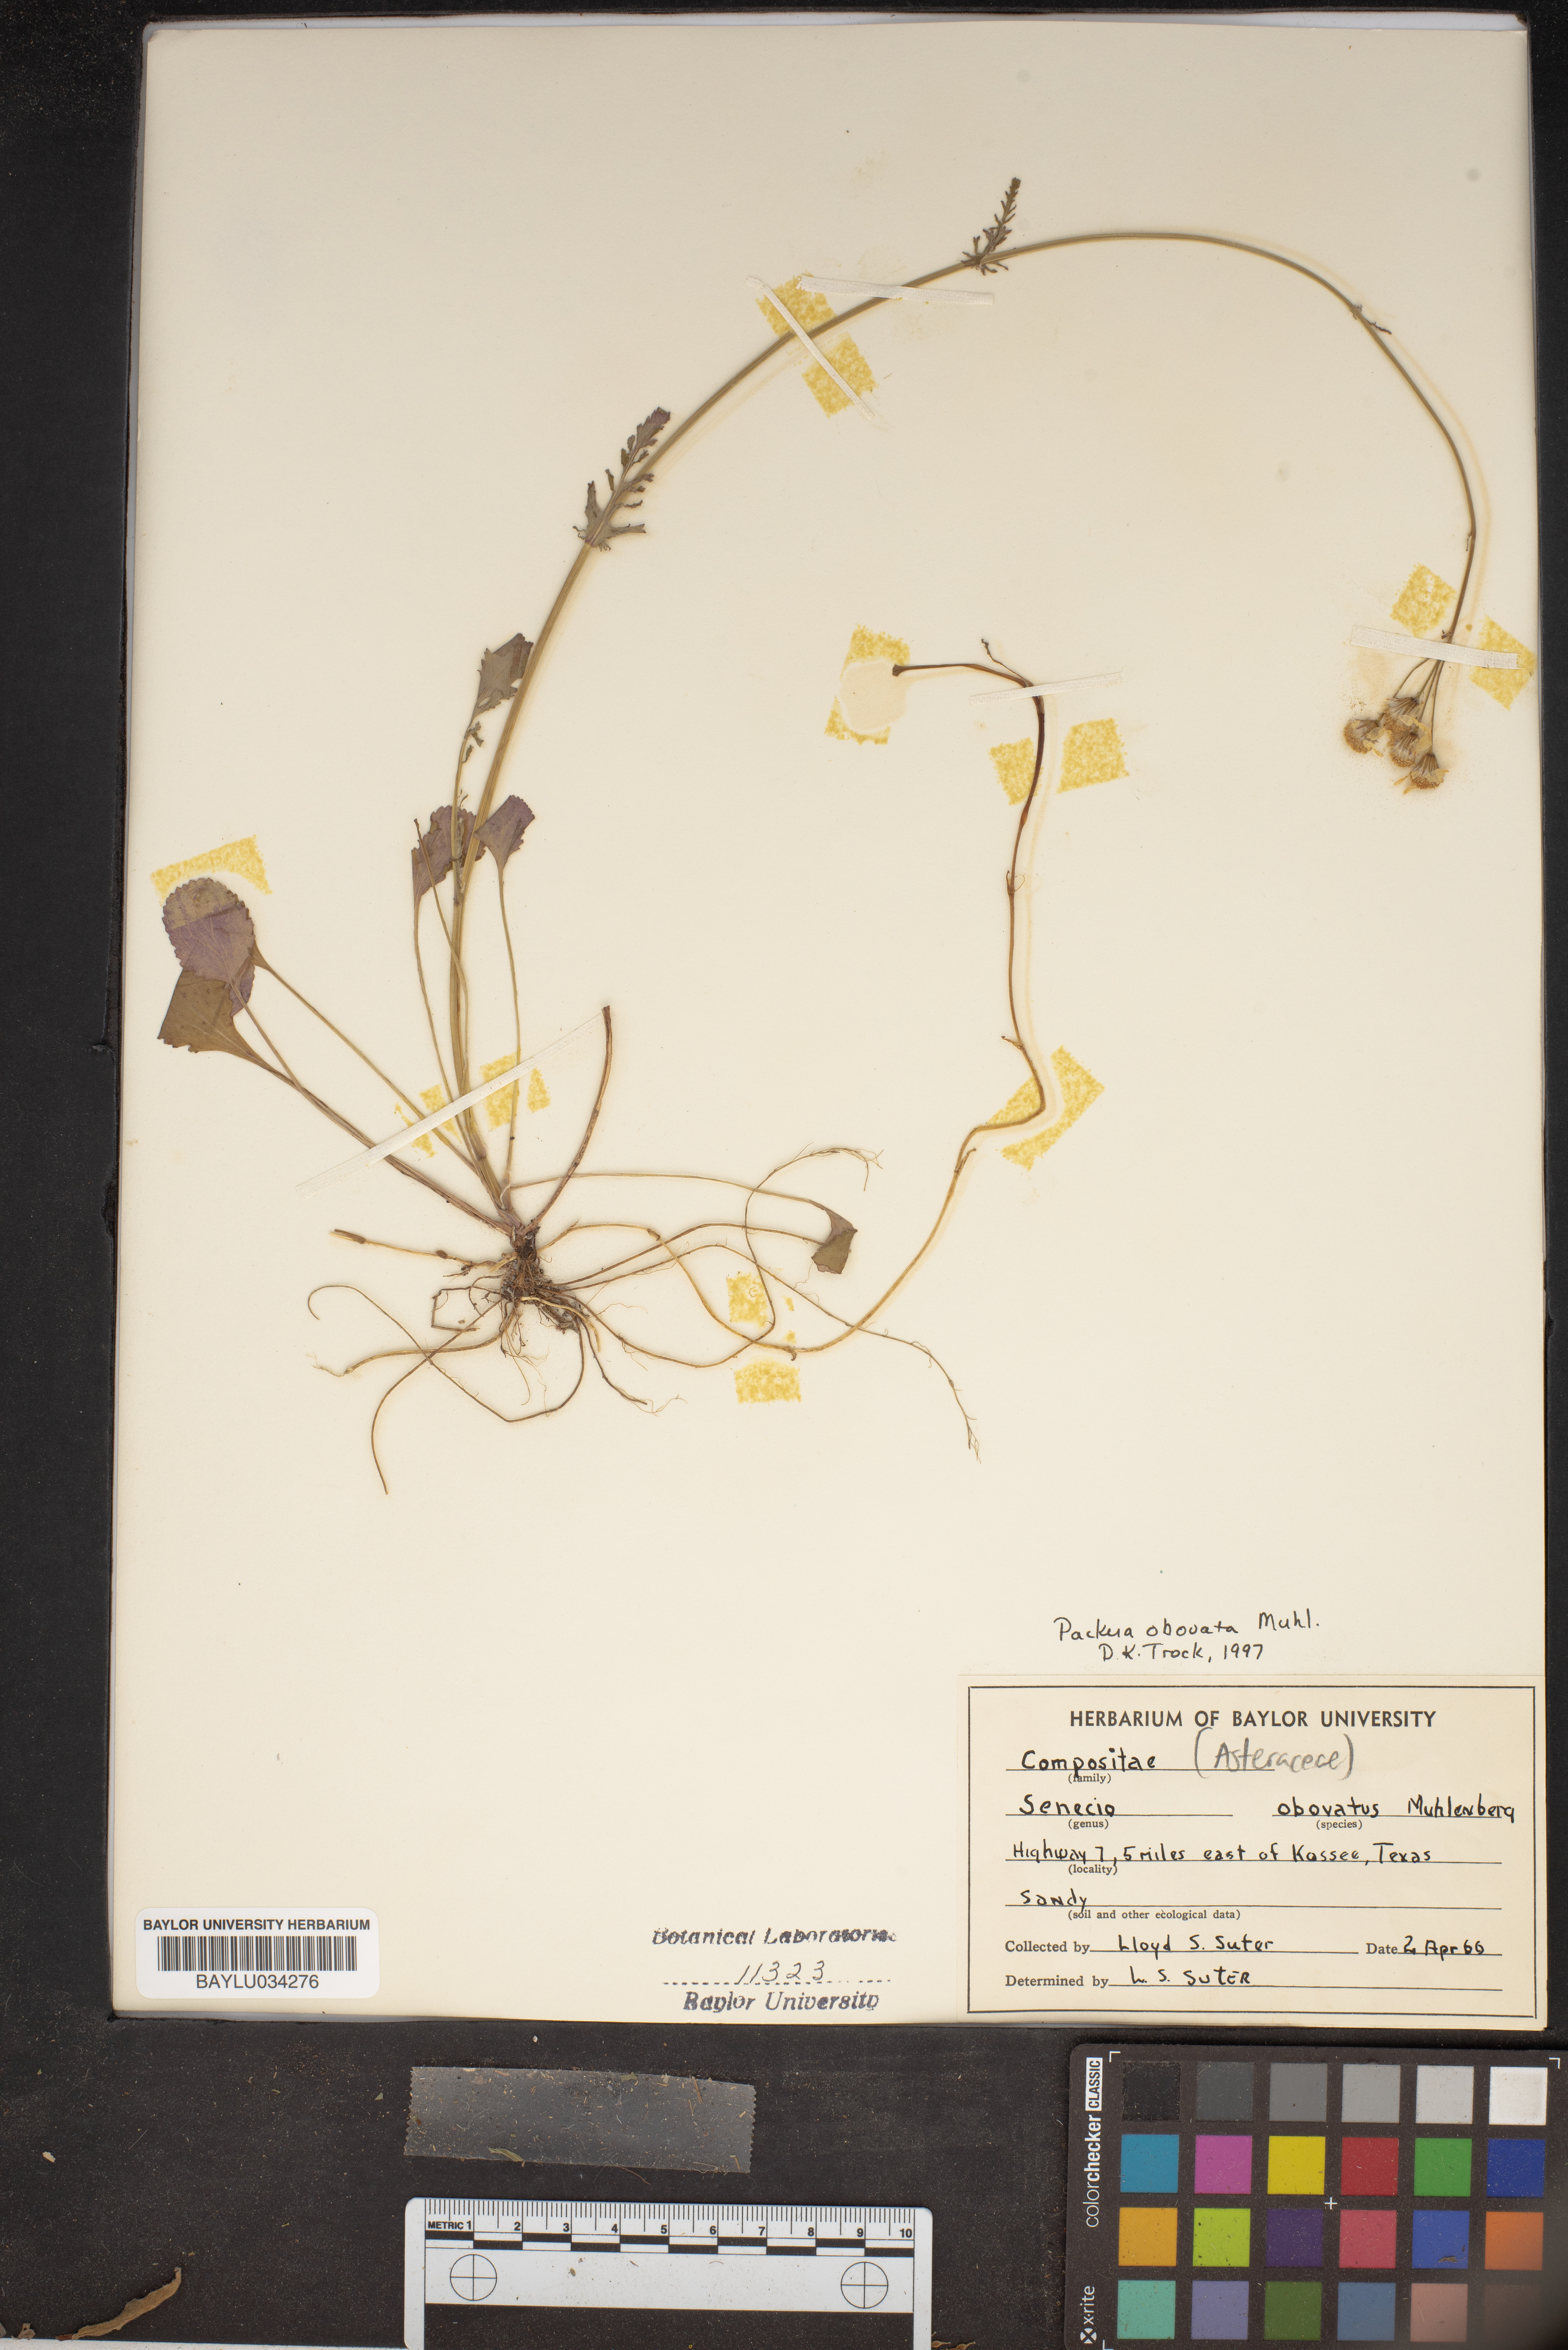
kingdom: Plantae
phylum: Tracheophyta
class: Magnoliopsida
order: Asterales
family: Asteraceae
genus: Senecio
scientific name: Senecio provincialis
